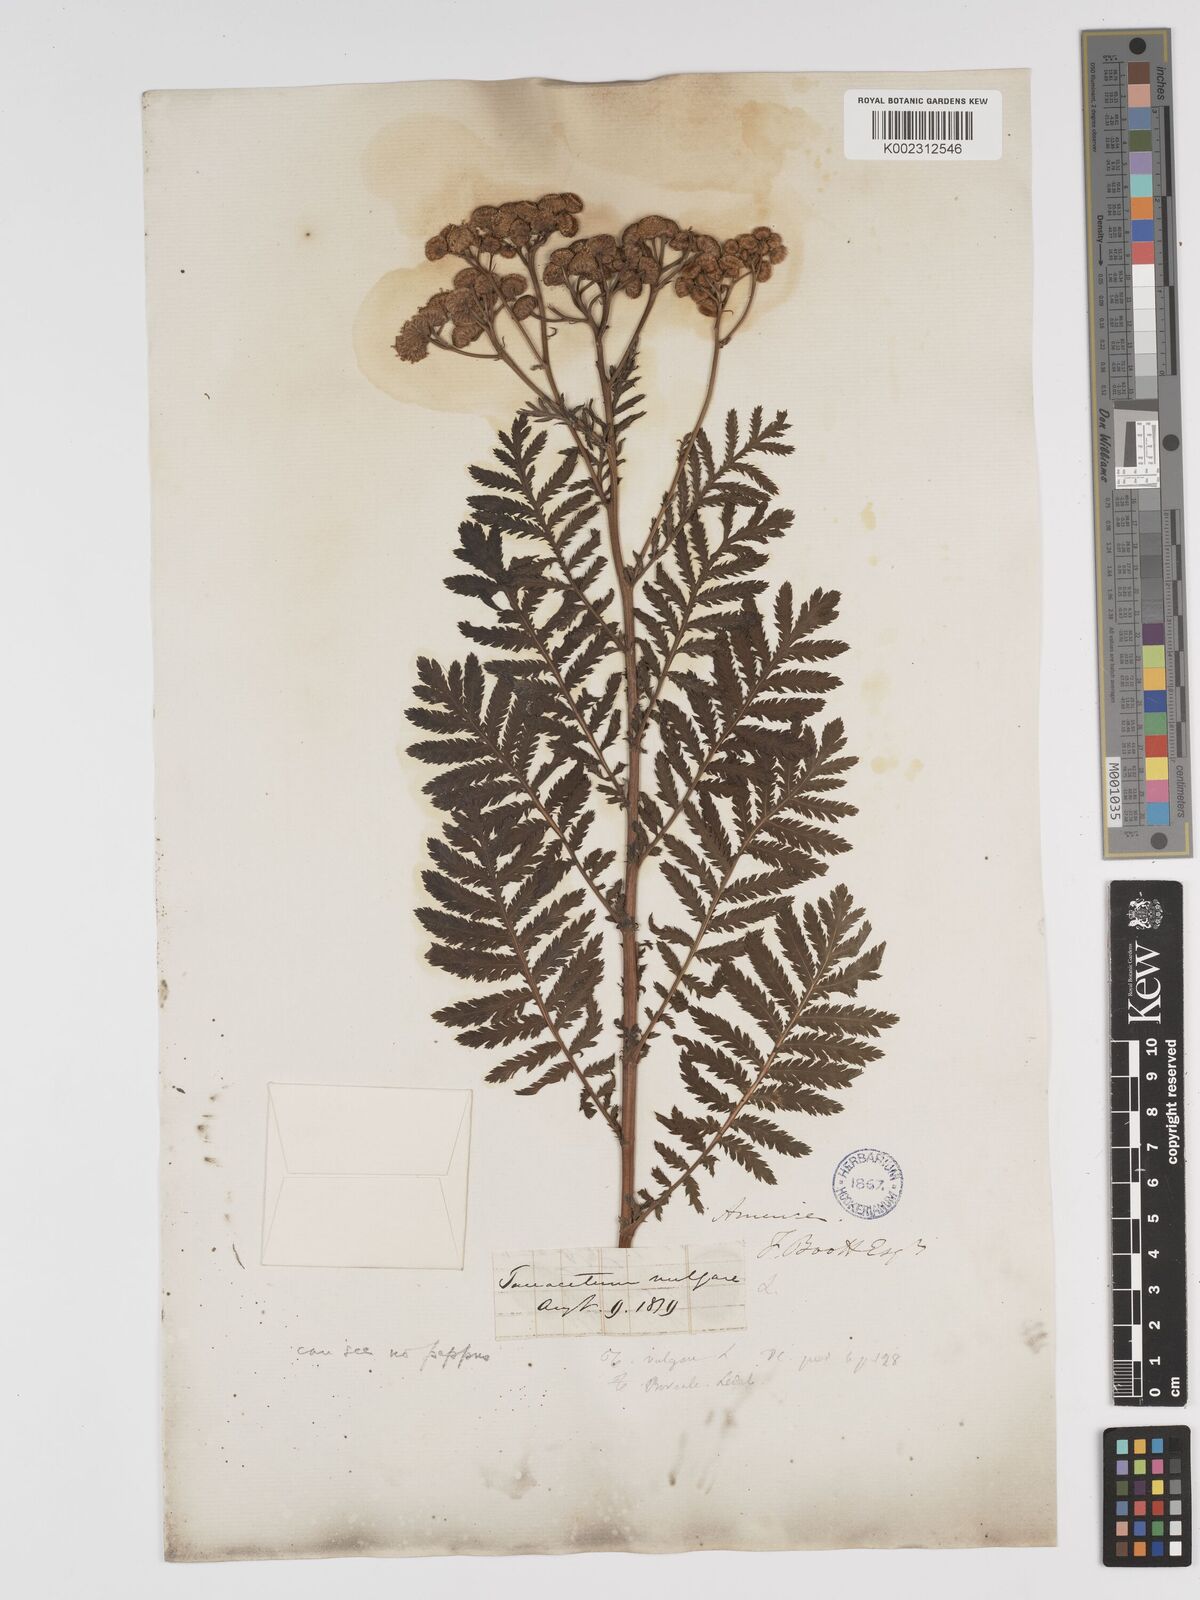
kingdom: Plantae
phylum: Tracheophyta
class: Magnoliopsida
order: Asterales
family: Asteraceae
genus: Tanacetum
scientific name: Tanacetum vulgare
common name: Common tansy
